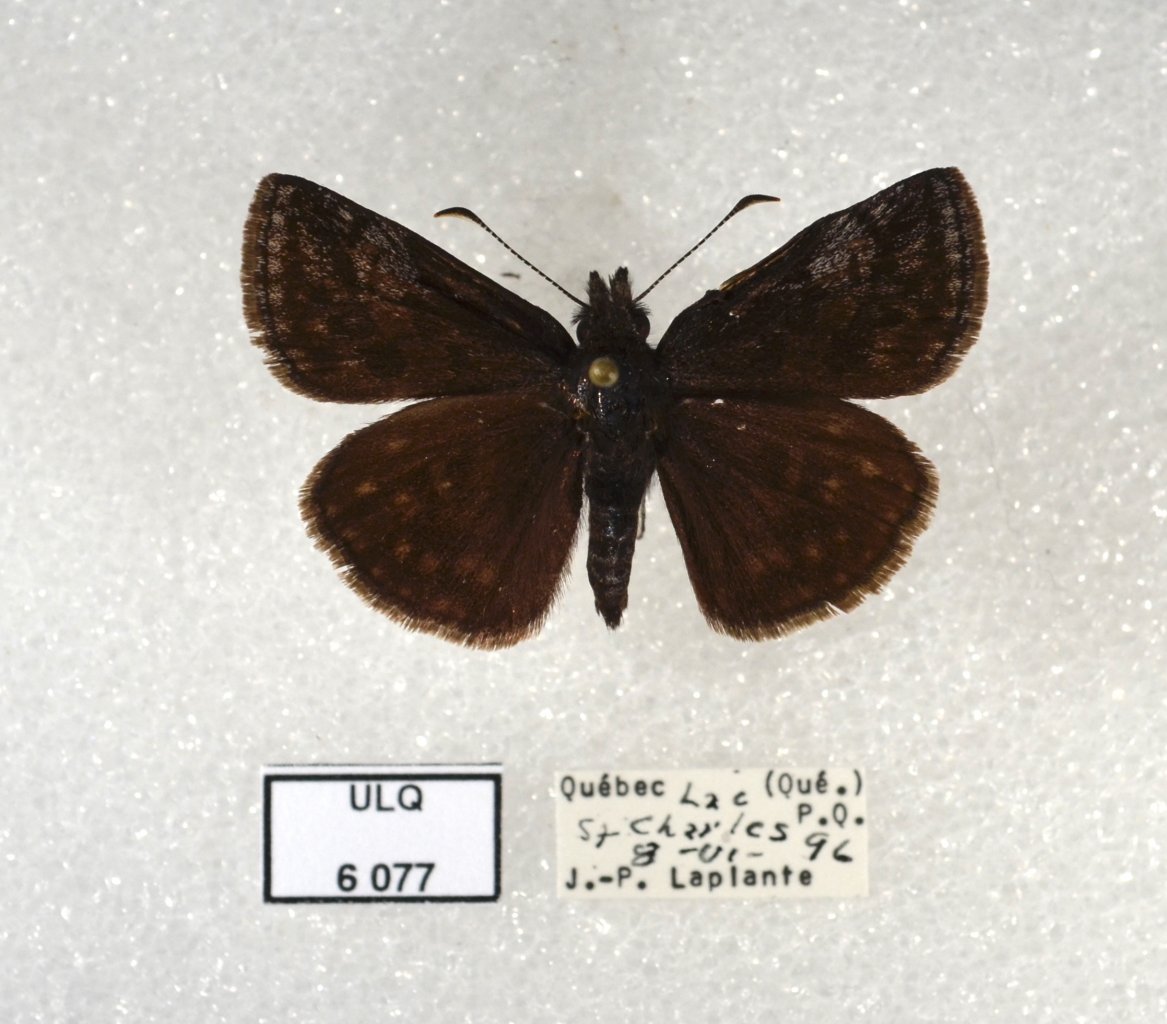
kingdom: Animalia
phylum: Arthropoda
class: Insecta
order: Lepidoptera
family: Hesperiidae
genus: Erynnis
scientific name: Erynnis icelus
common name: Dreamy Duskywing
